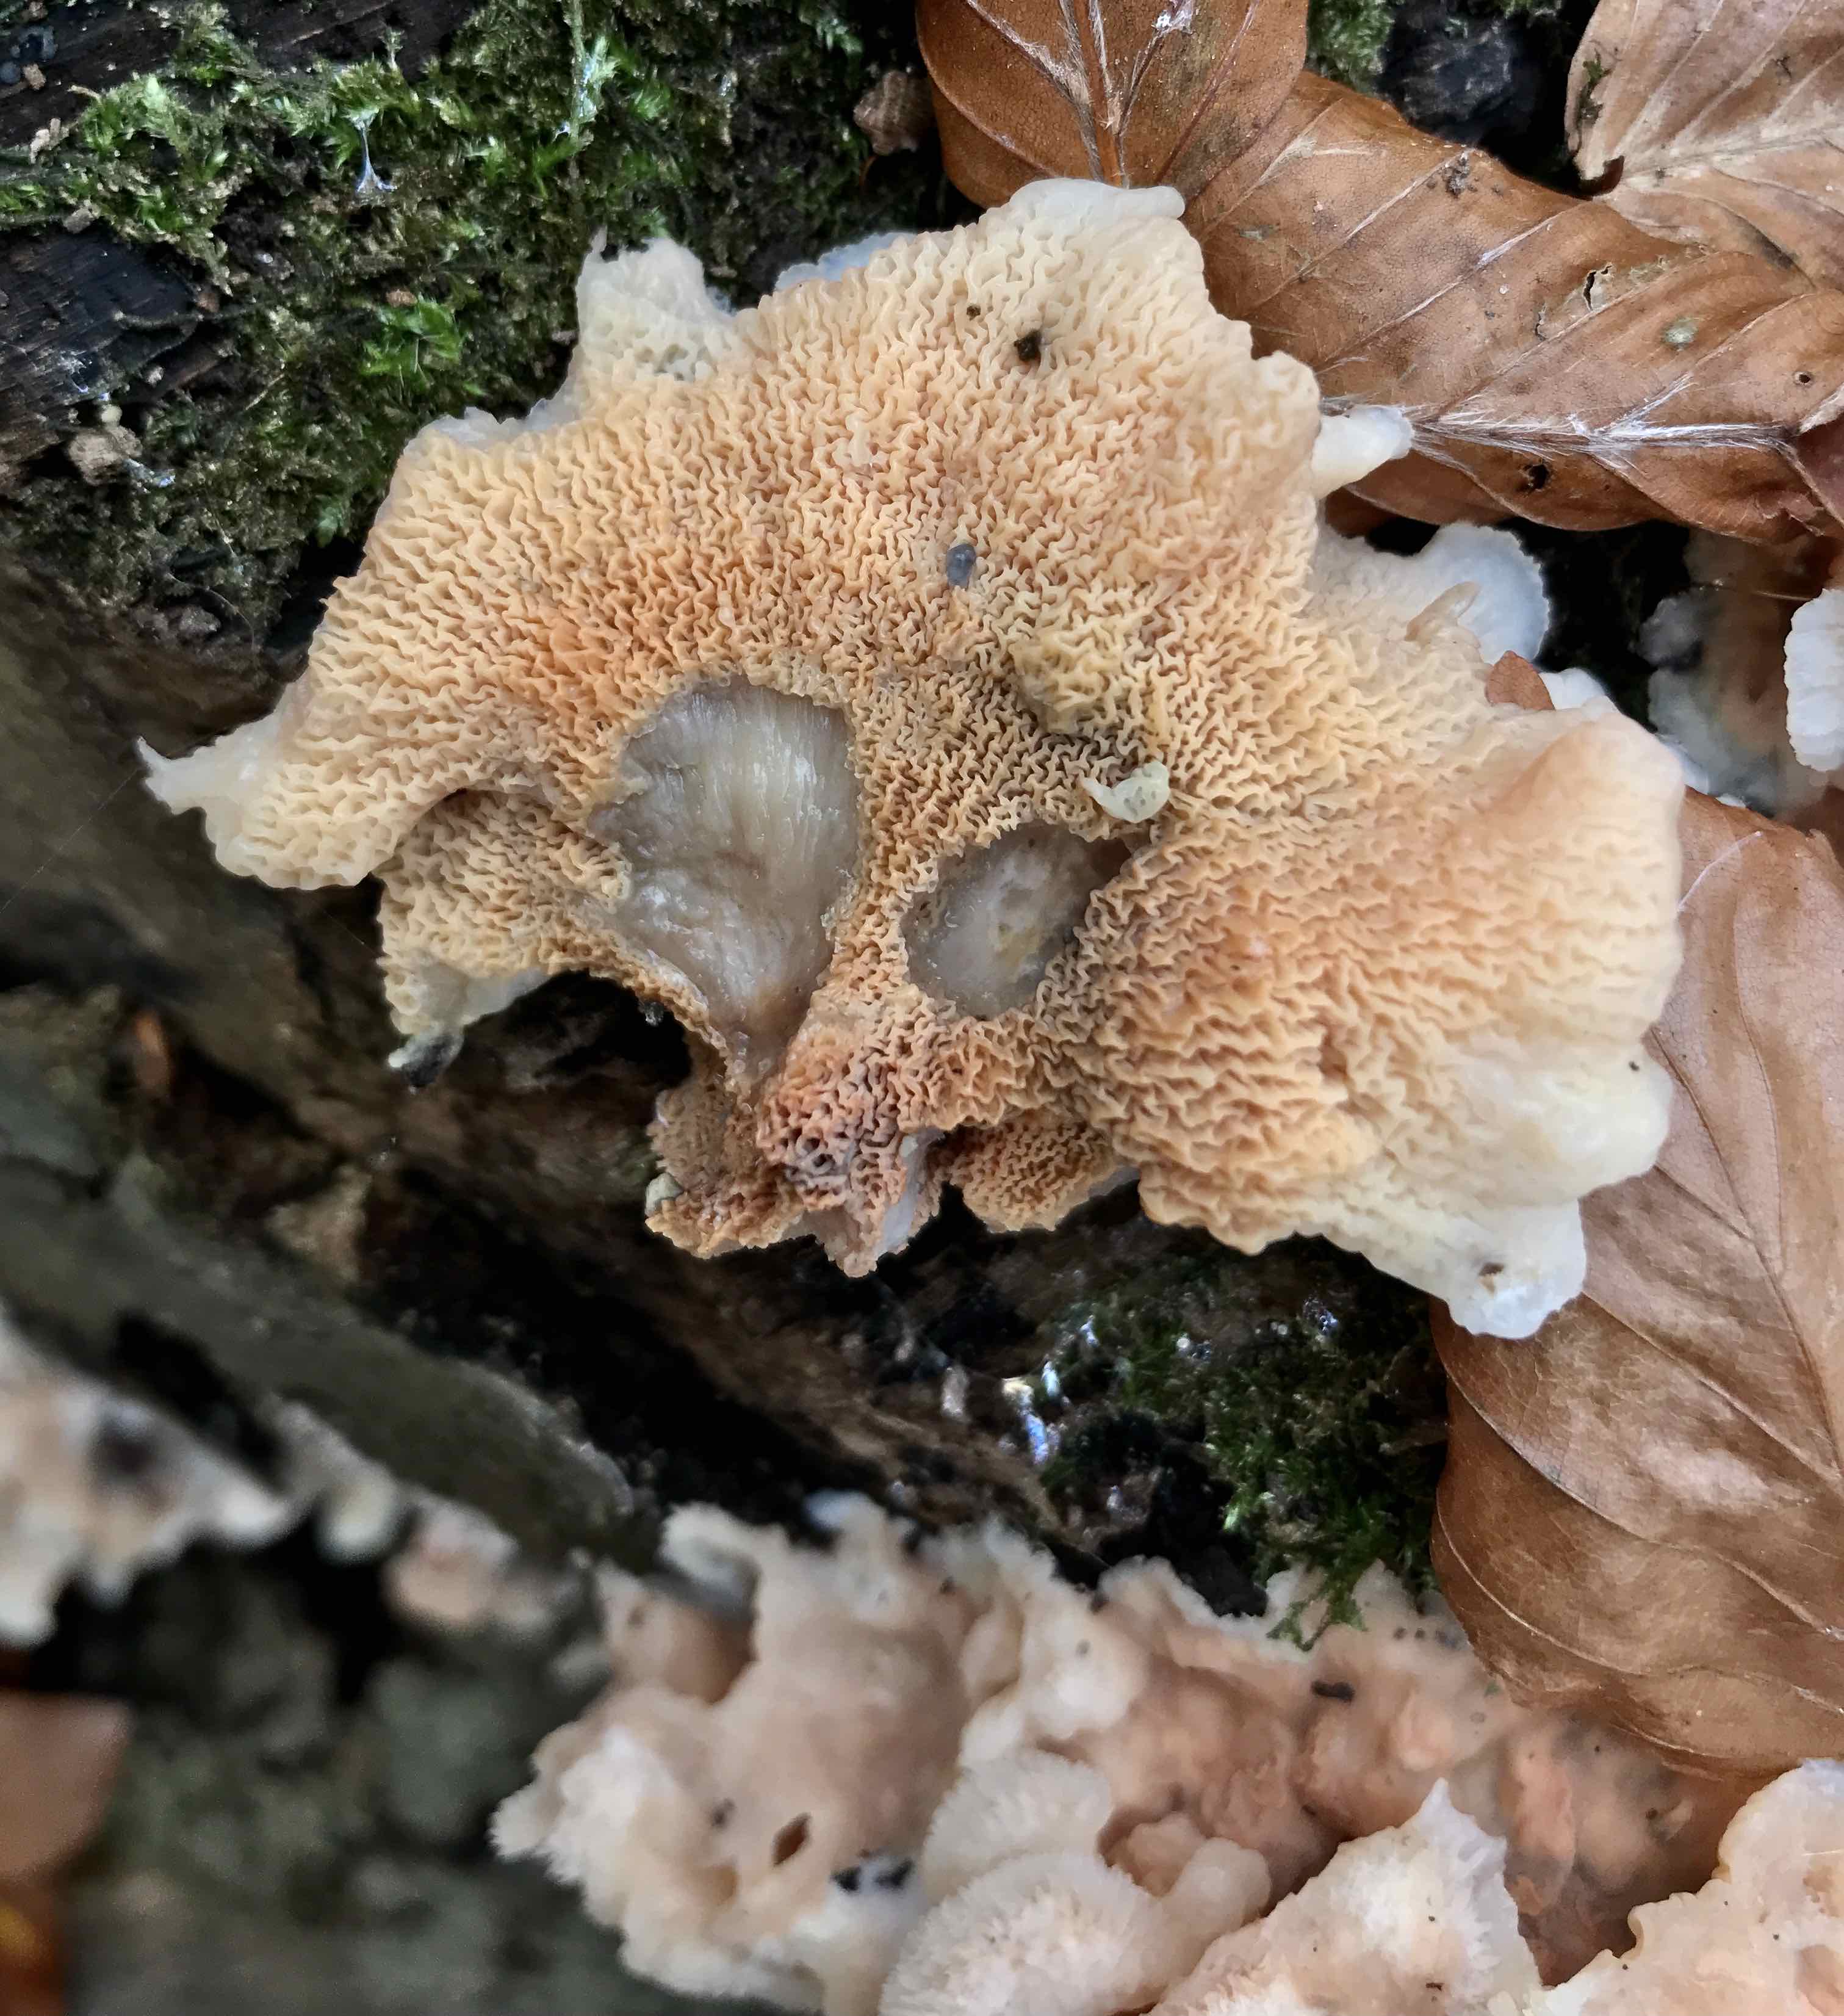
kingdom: Fungi
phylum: Basidiomycota
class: Agaricomycetes
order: Polyporales
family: Meruliaceae
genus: Phlebia
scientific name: Phlebia tremellosa
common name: bævrende åresvamp
